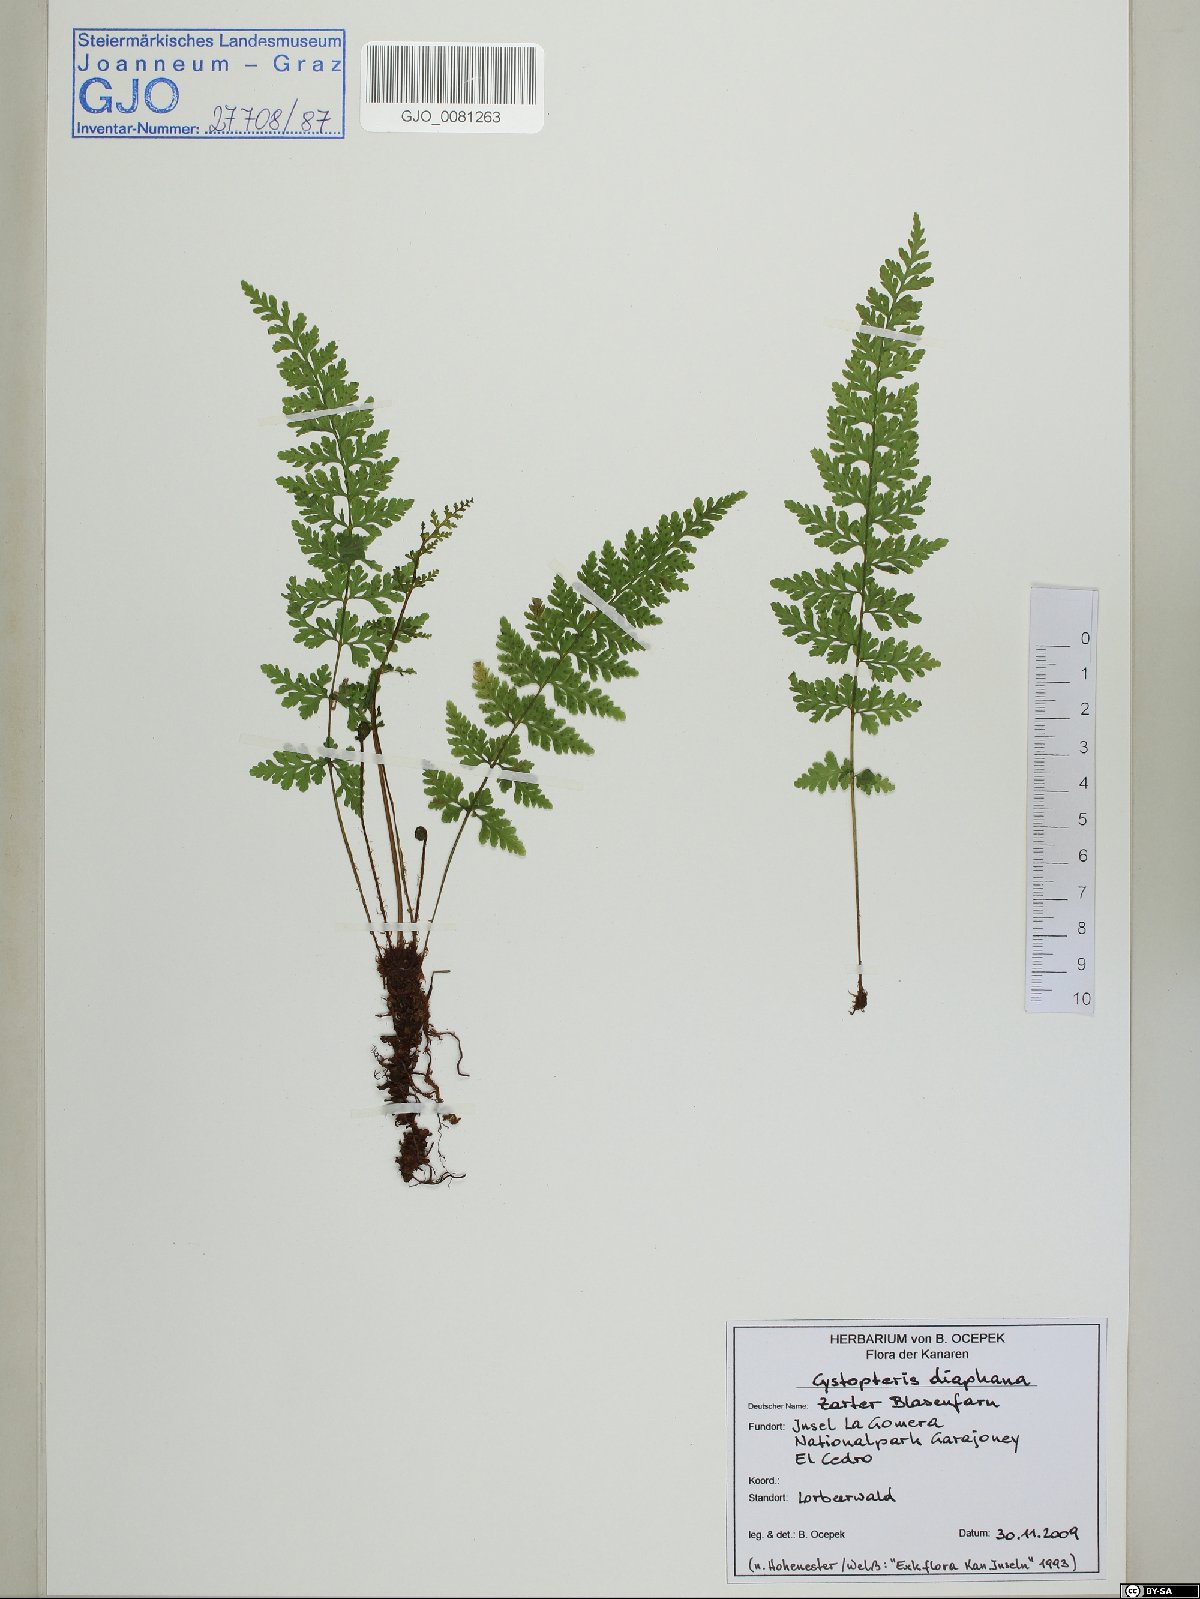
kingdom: Plantae
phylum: Tracheophyta
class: Polypodiopsida
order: Polypodiales
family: Cystopteridaceae
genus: Cystopteris
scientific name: Cystopteris diaphana
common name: Greenish bladder-fern
